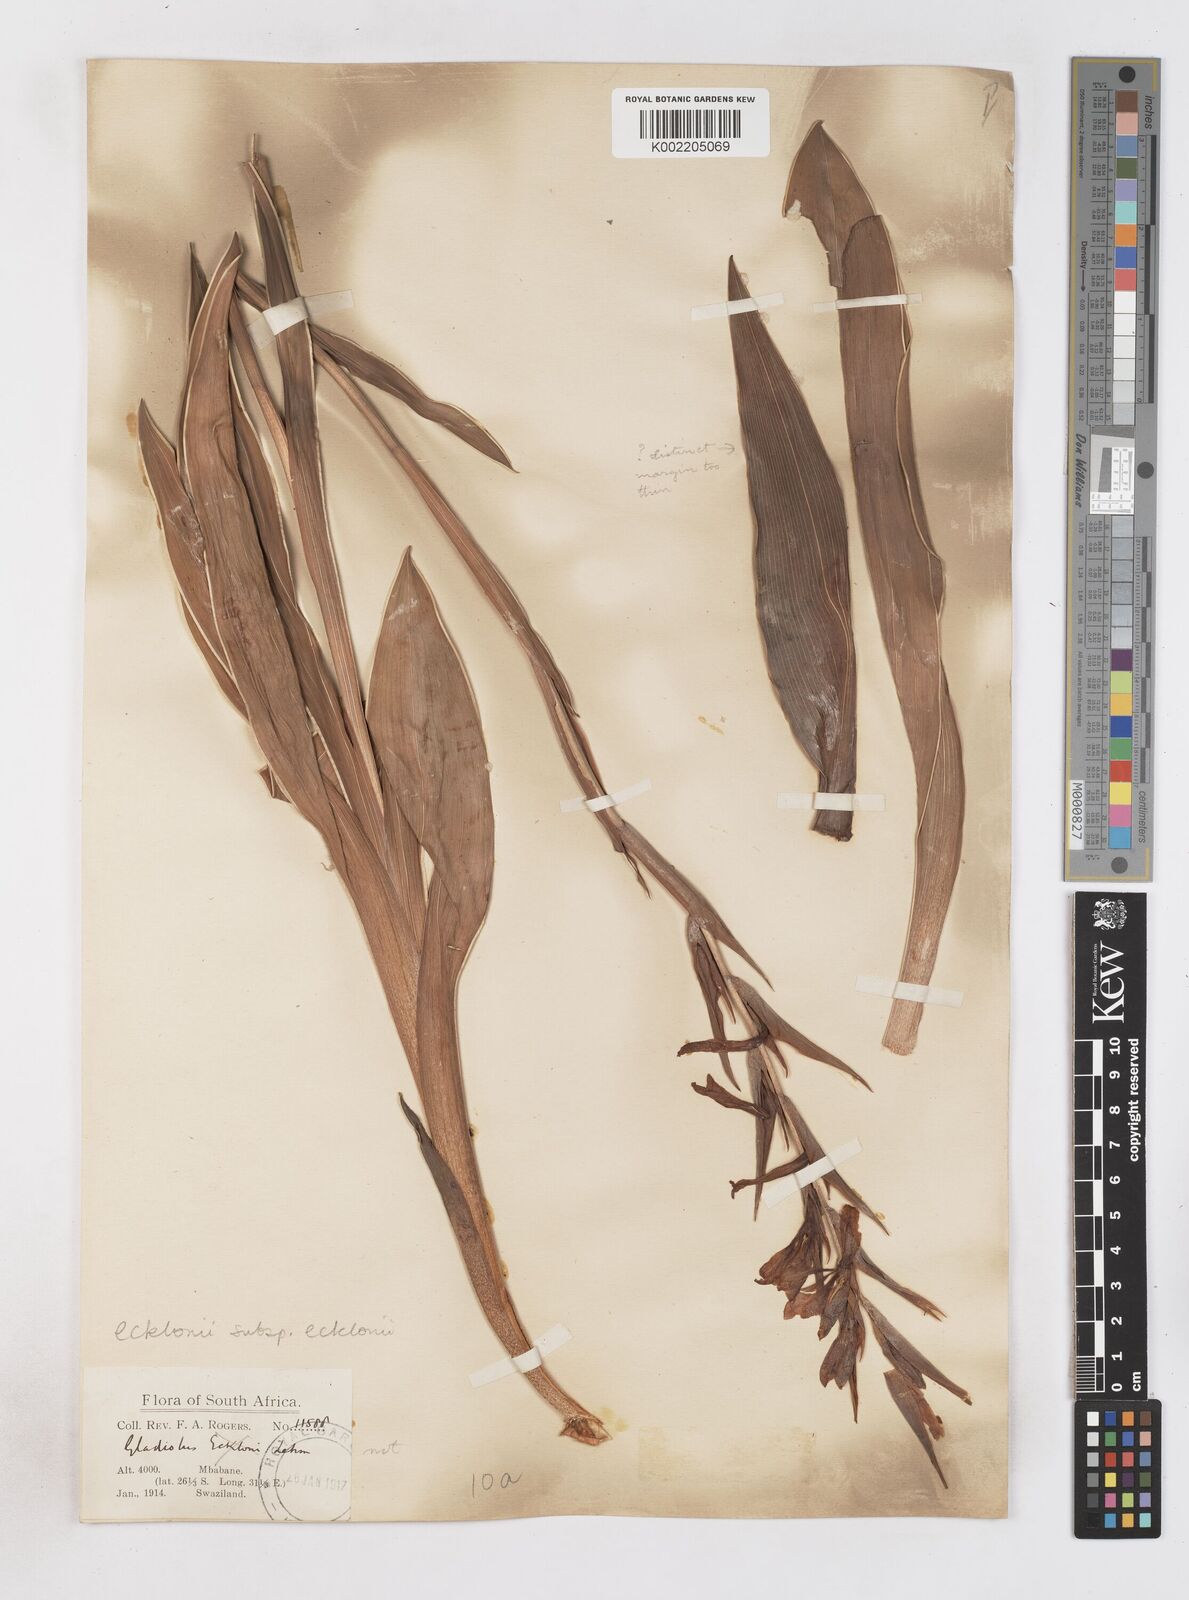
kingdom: Plantae
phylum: Tracheophyta
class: Liliopsida
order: Asparagales
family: Iridaceae
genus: Gladiolus
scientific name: Gladiolus ecklonii
